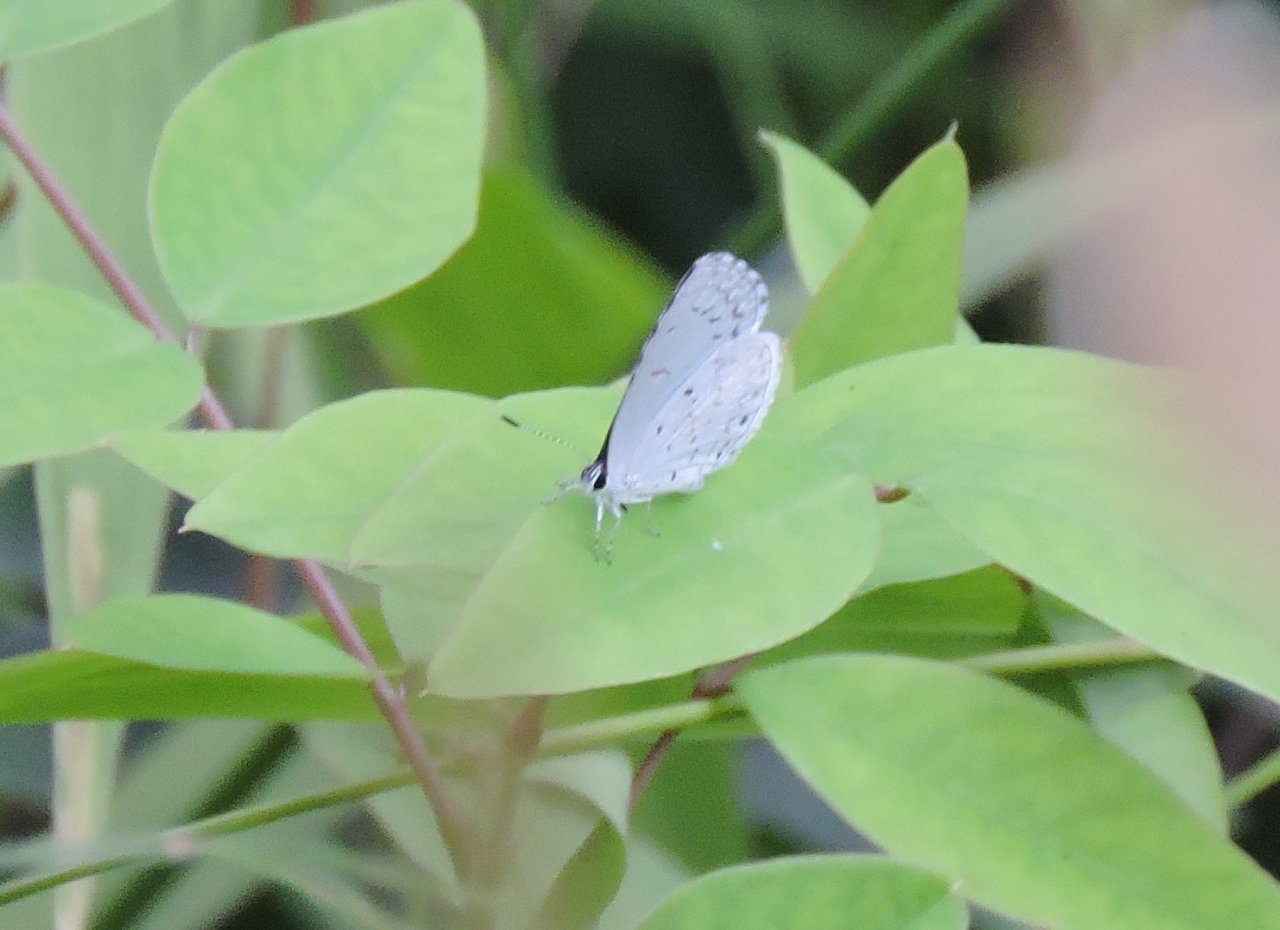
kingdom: Animalia
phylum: Arthropoda
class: Insecta
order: Lepidoptera
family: Lycaenidae
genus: Cyaniris
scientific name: Cyaniris neglecta
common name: Summer Azure
